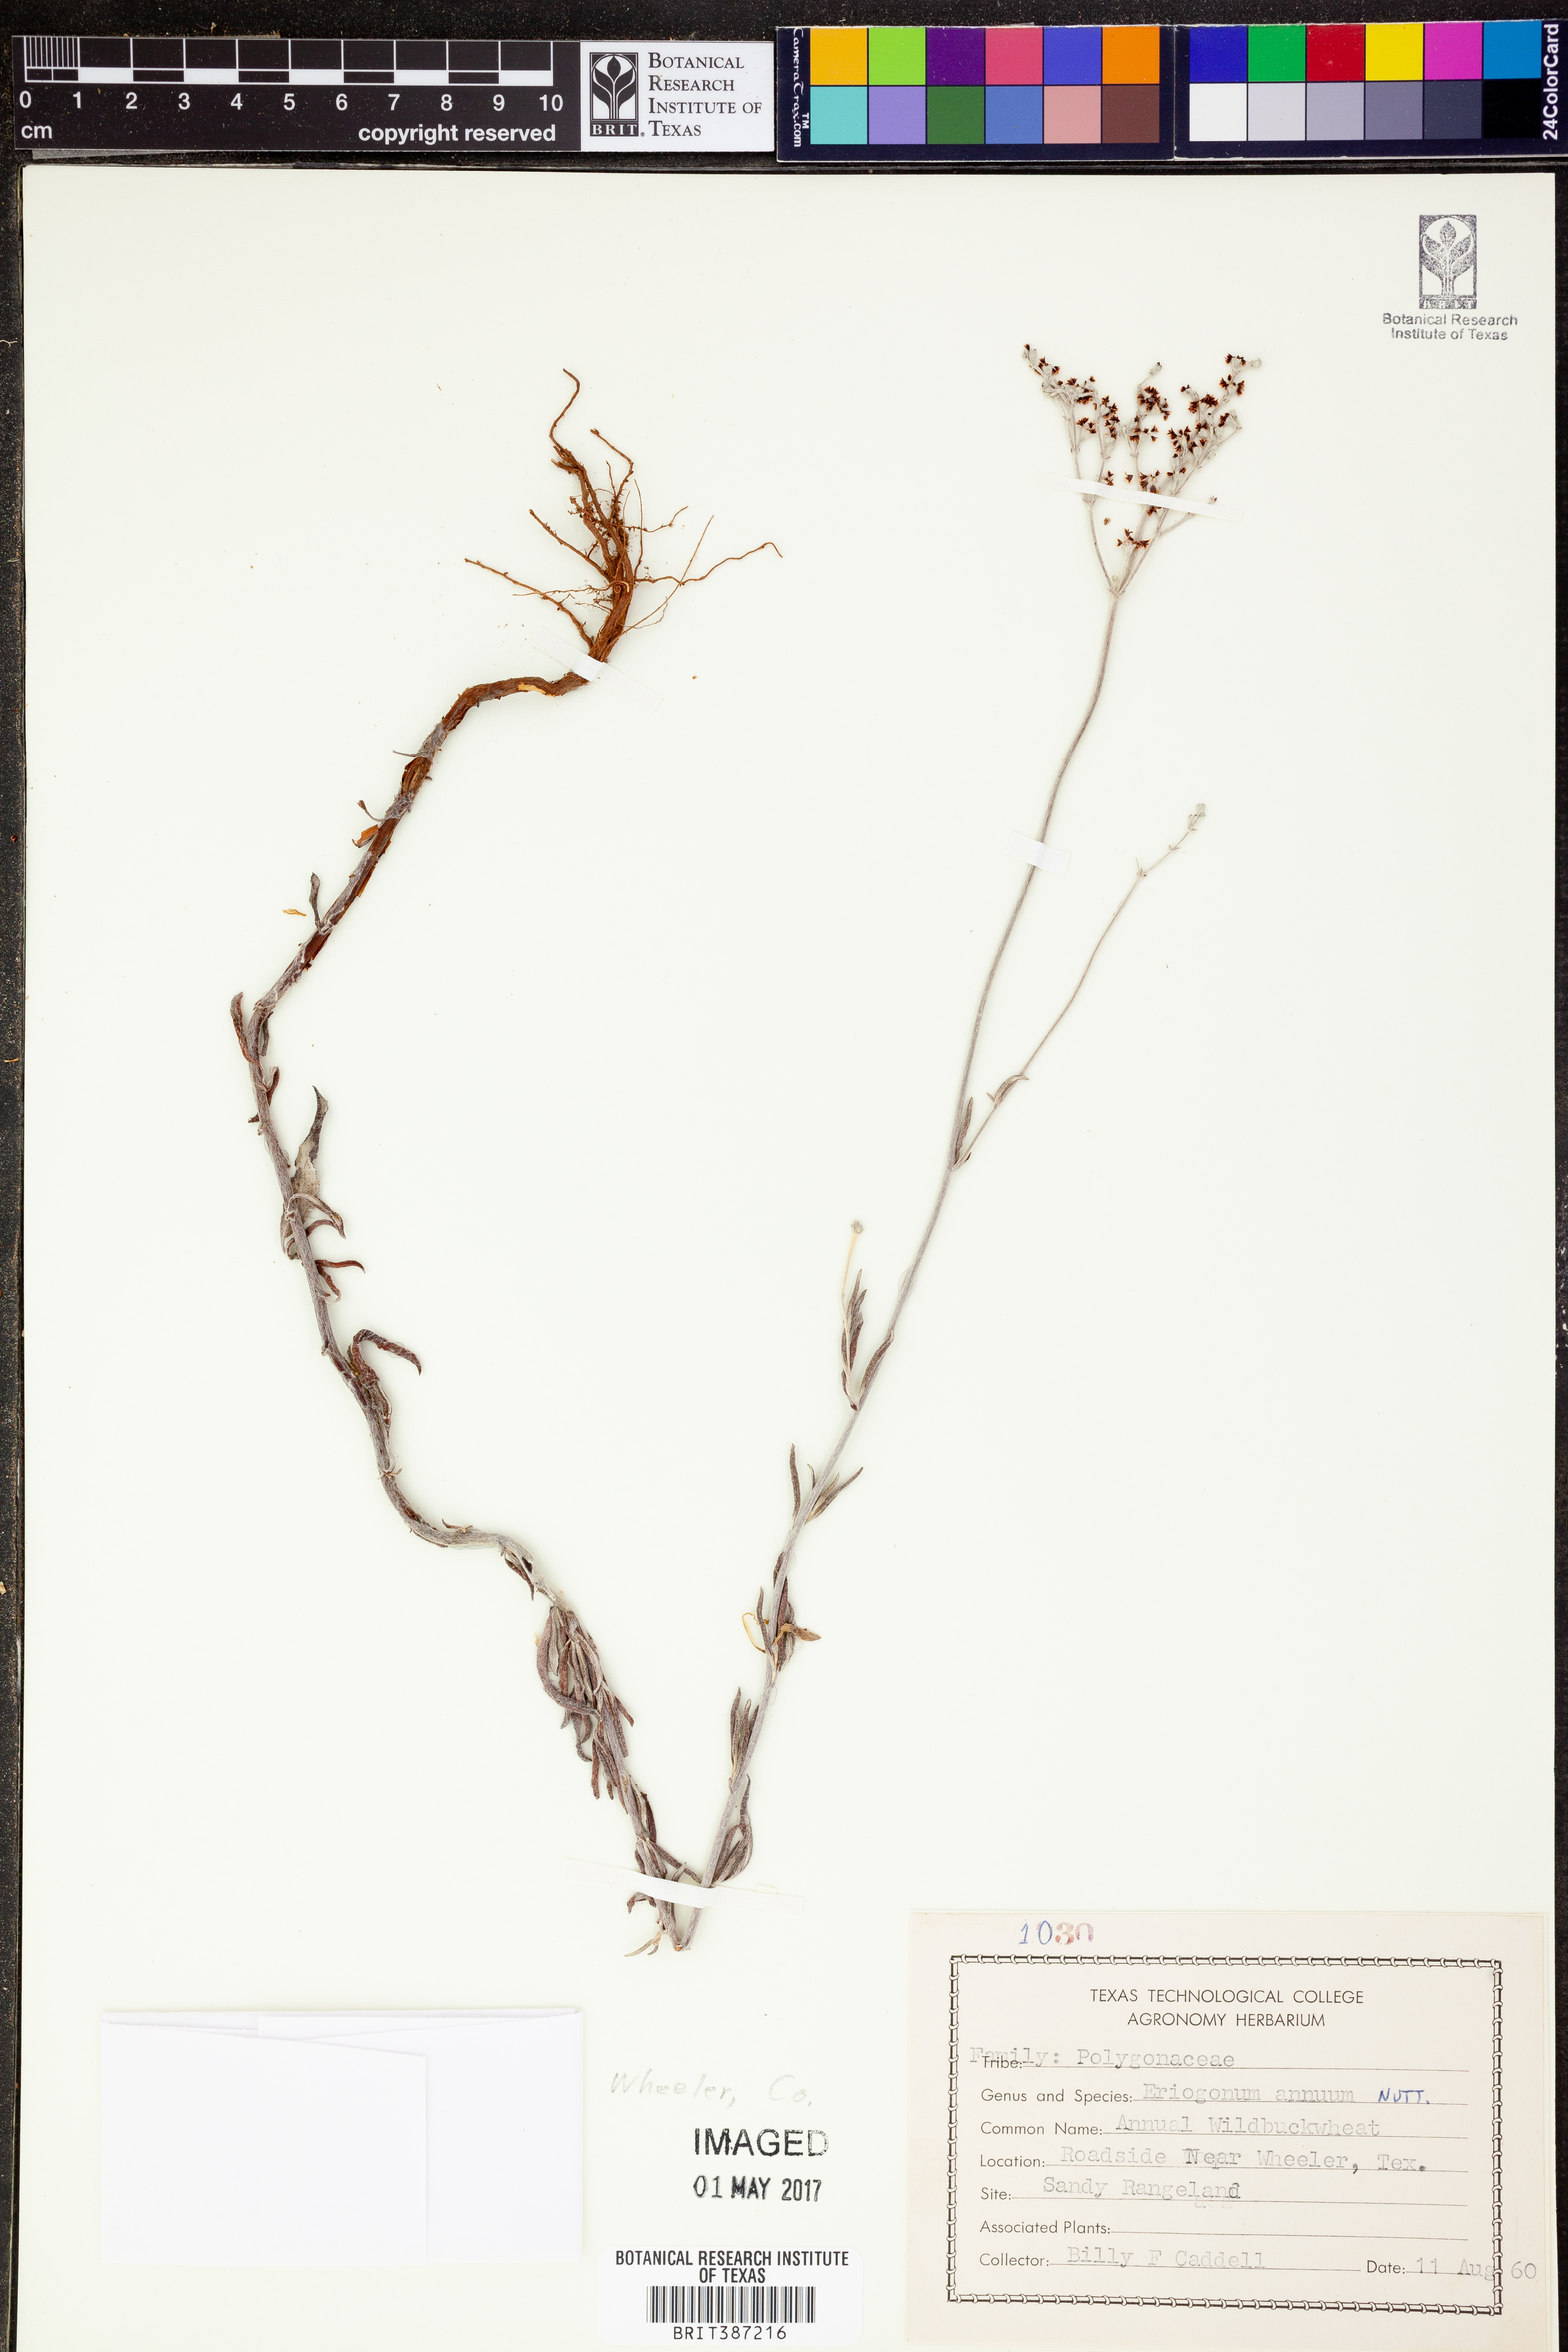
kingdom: Plantae
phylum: Tracheophyta
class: Magnoliopsida
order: Caryophyllales
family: Polygonaceae
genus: Eriogonum
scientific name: Eriogonum annuum
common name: Annual wild buckwheat
